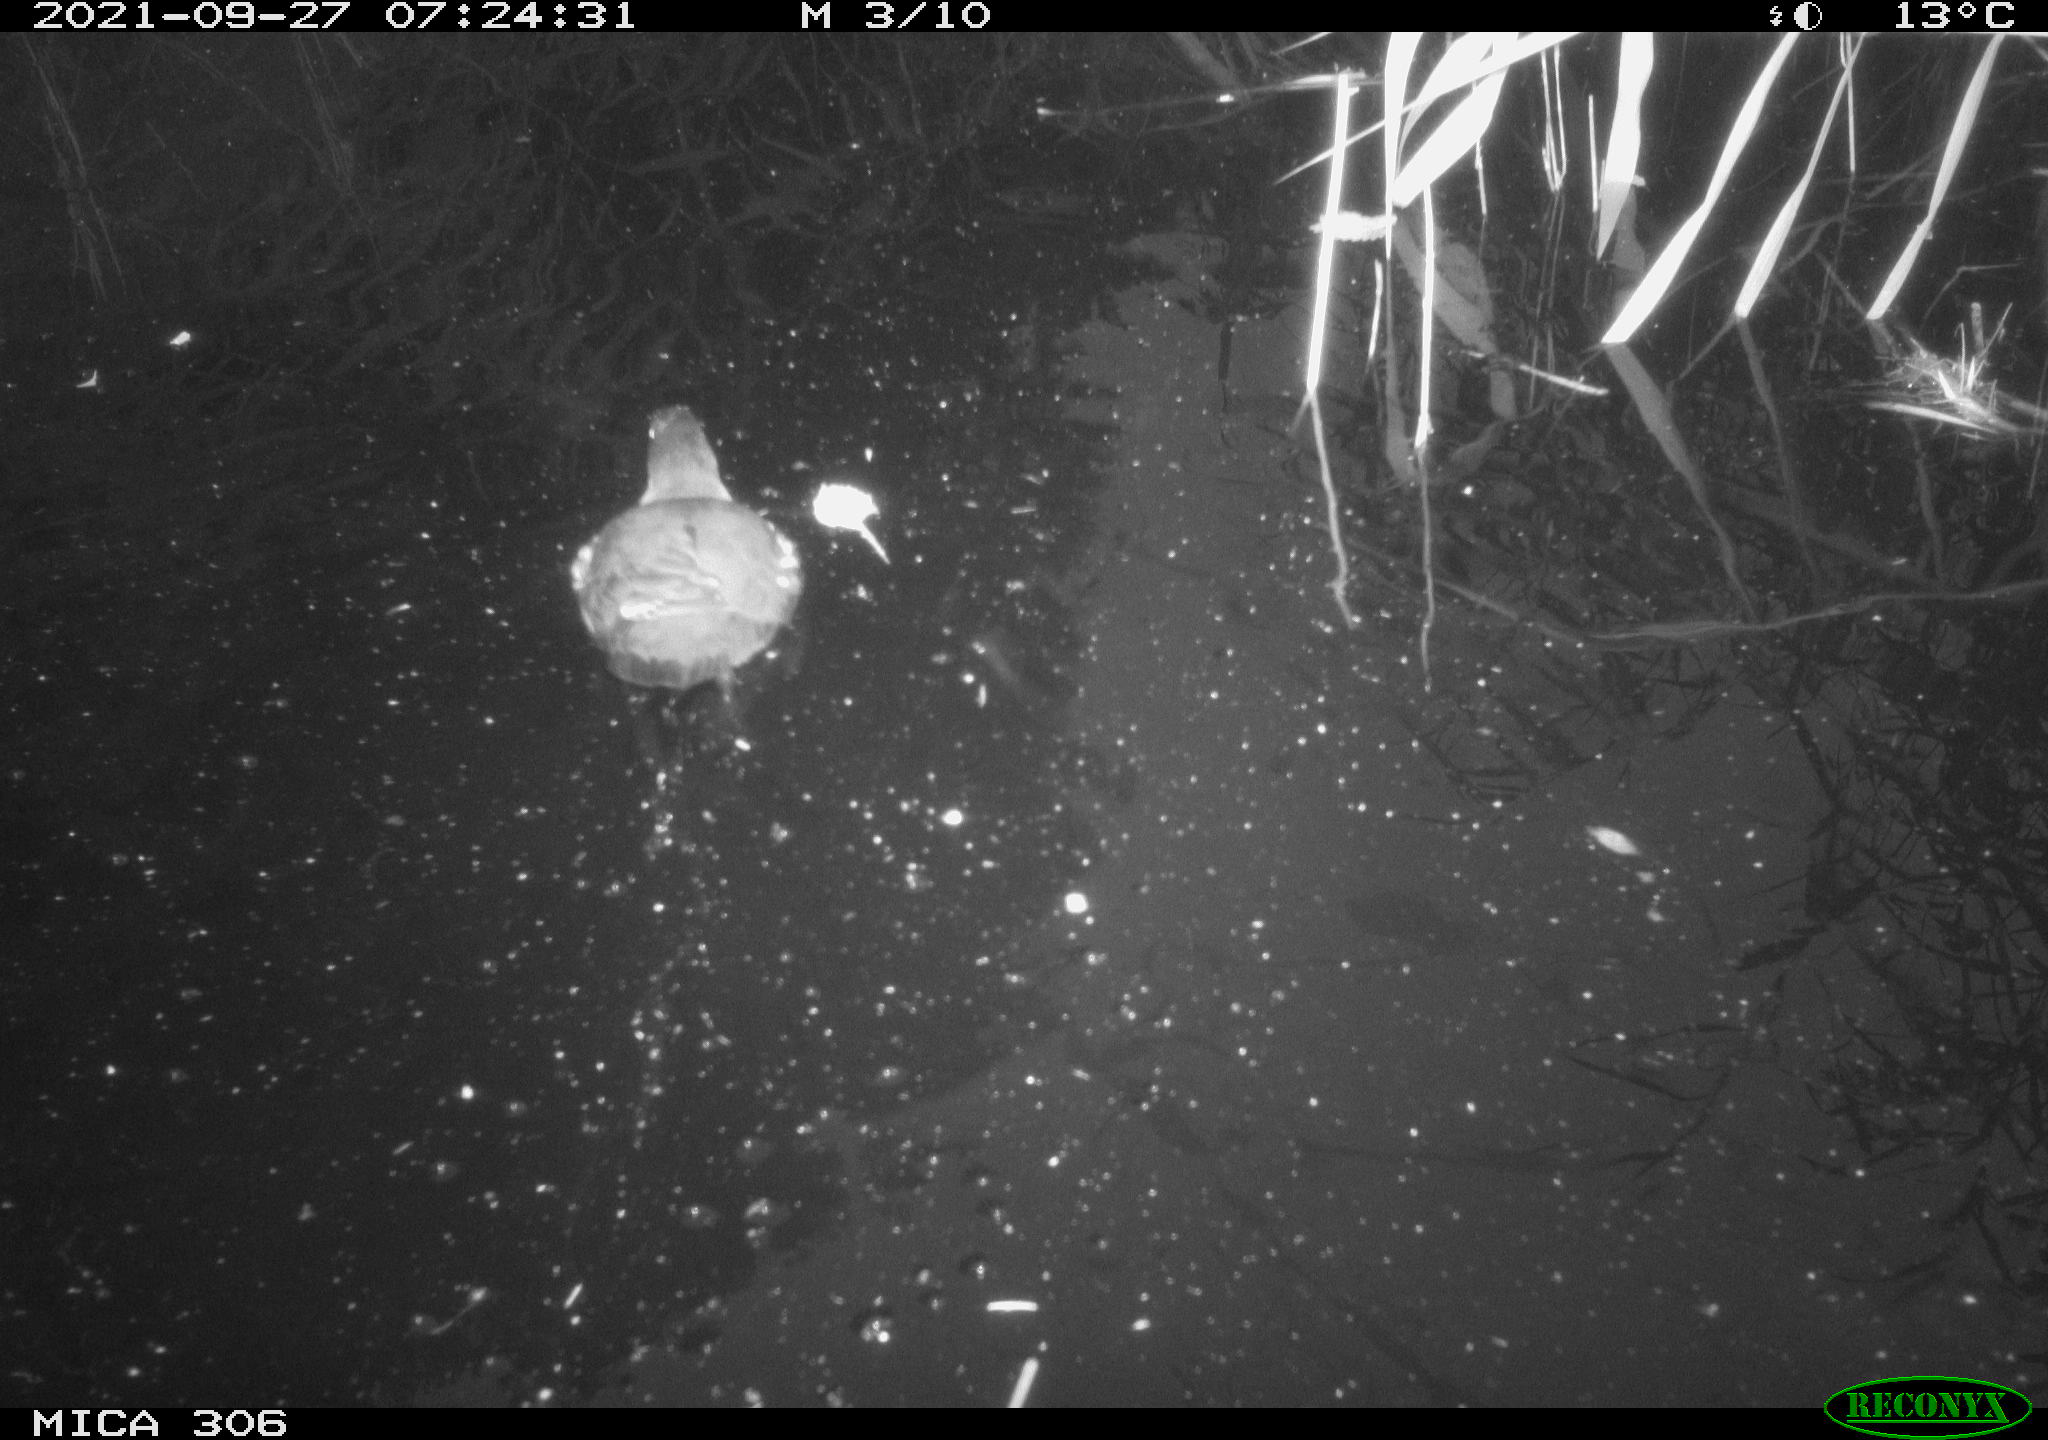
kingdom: Animalia
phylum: Chordata
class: Aves
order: Gruiformes
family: Rallidae
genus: Gallinula
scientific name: Gallinula chloropus
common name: Common moorhen
